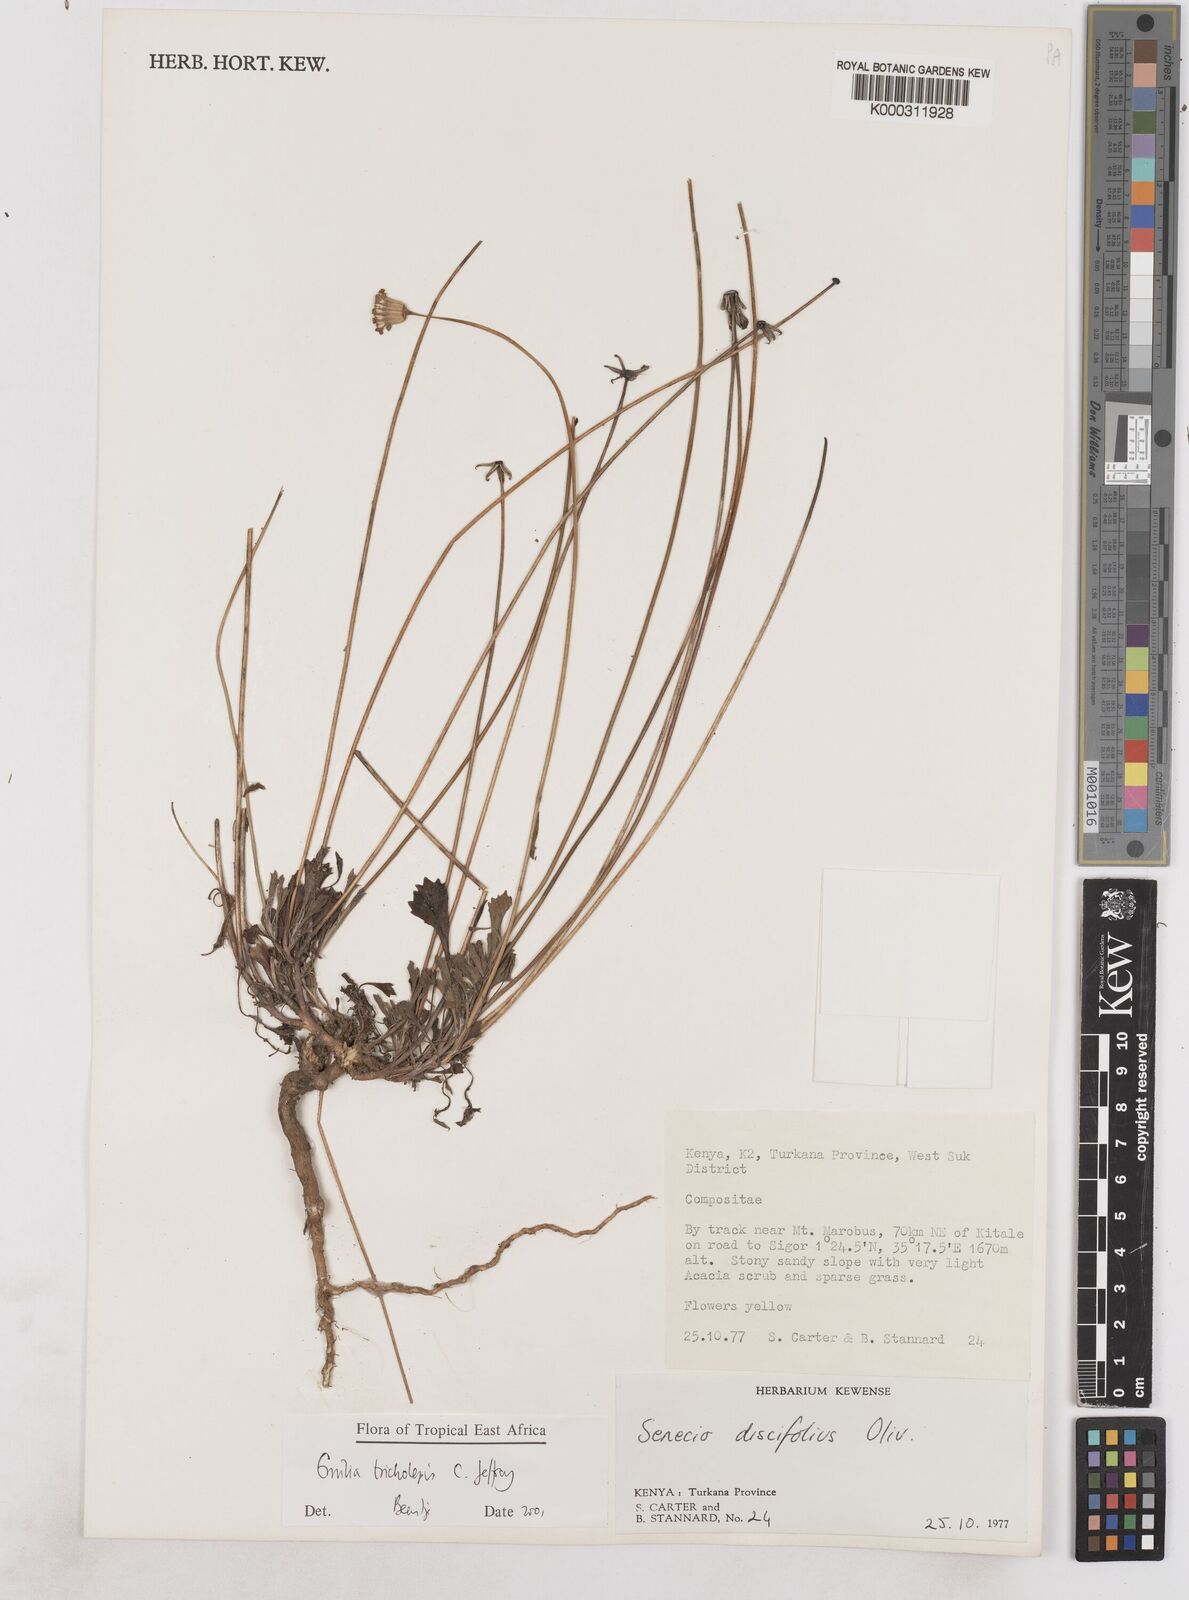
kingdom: Plantae
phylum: Tracheophyta
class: Magnoliopsida
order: Asterales
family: Asteraceae
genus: Emilia
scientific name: Emilia tricholepis
